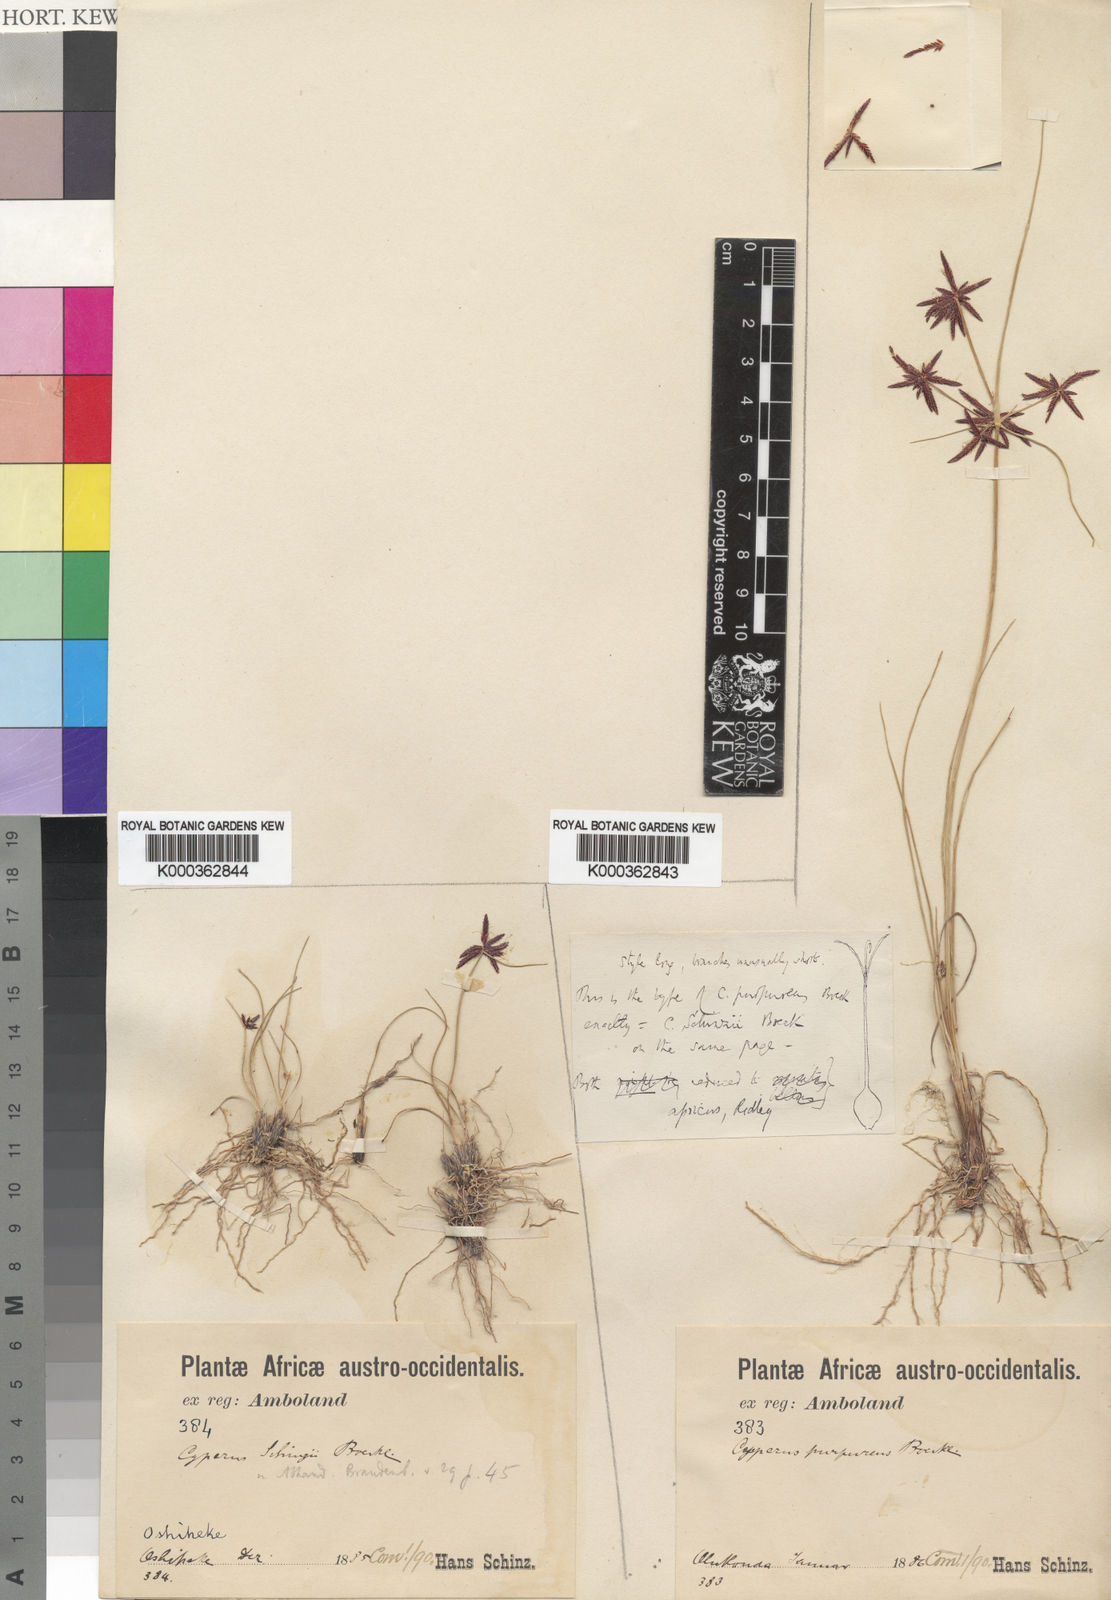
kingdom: Plantae
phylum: Tracheophyta
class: Liliopsida
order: Poales
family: Cyperaceae
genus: Cyperus
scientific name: Cyperus semitrifidus
